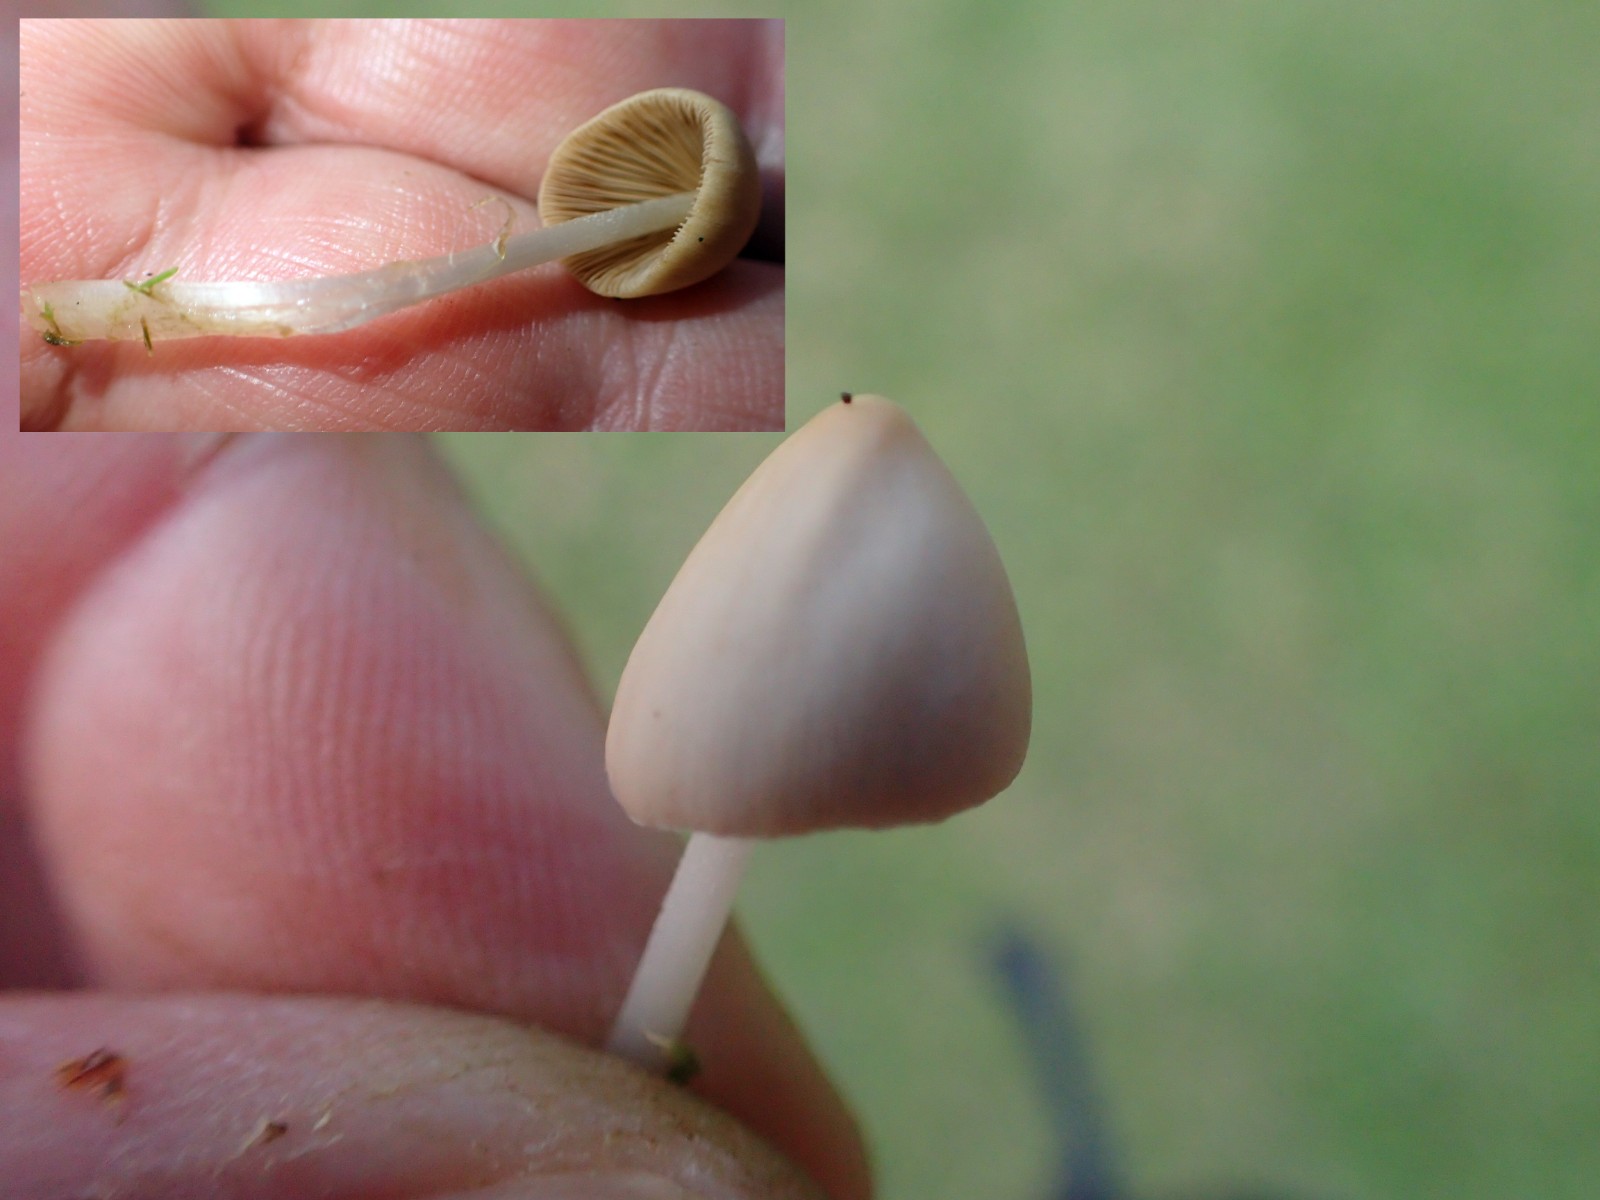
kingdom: Fungi
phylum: Basidiomycota
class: Agaricomycetes
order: Agaricales
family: Bolbitiaceae
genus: Conocybe
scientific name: Conocybe
